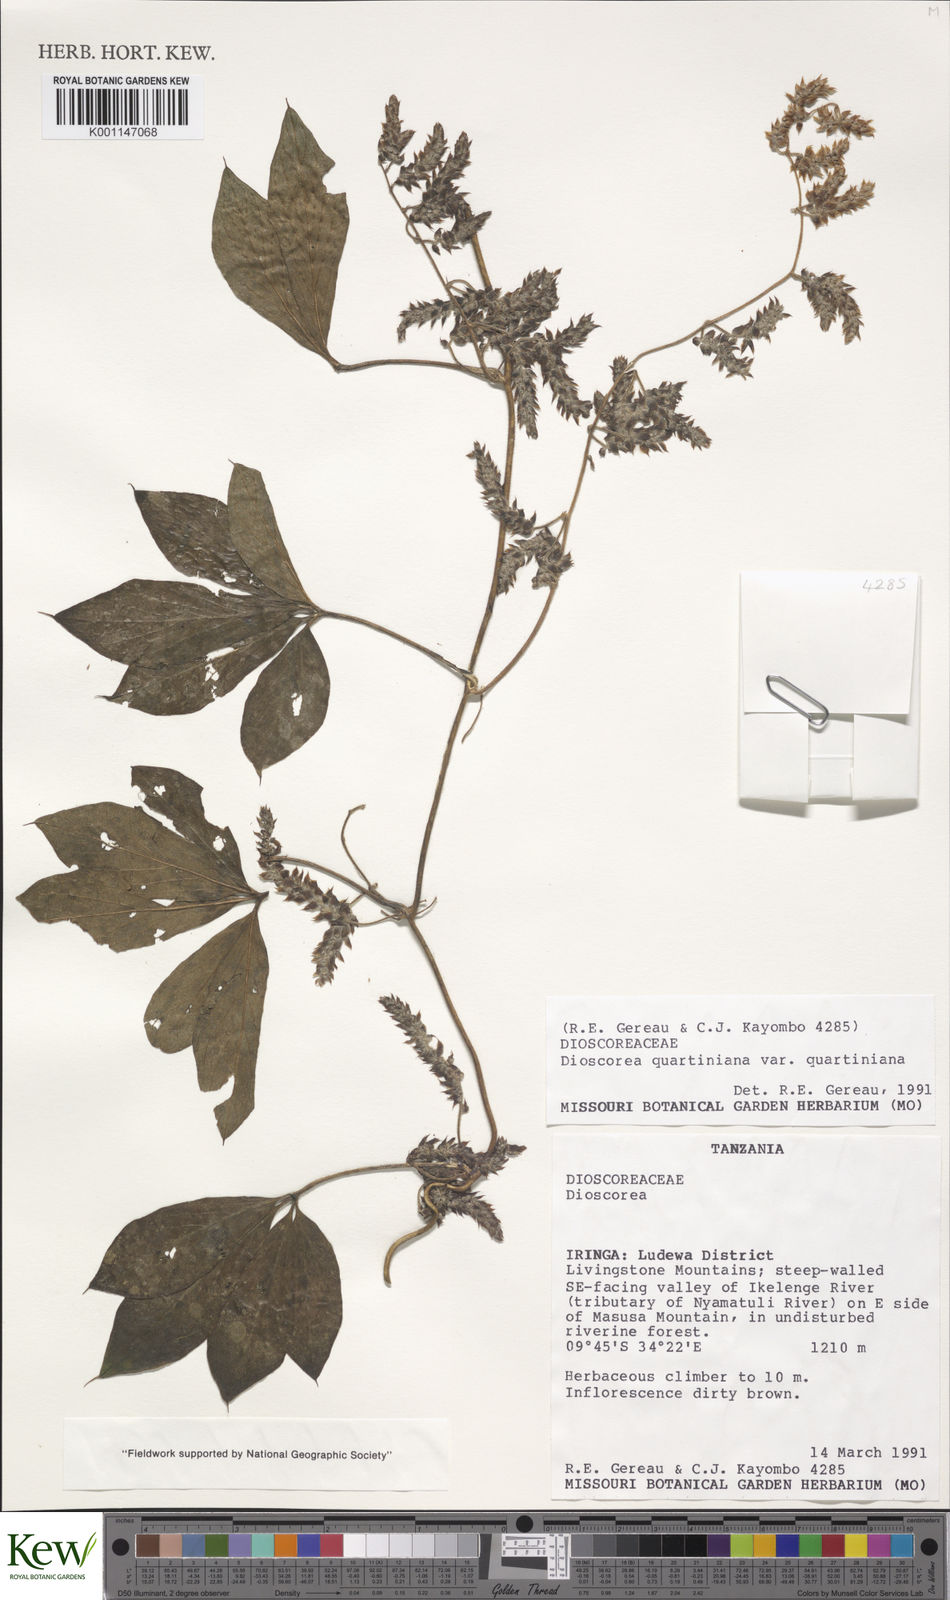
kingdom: Plantae
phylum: Tracheophyta
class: Liliopsida
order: Dioscoreales
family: Dioscoreaceae
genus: Dioscorea
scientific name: Dioscorea quartiniana
